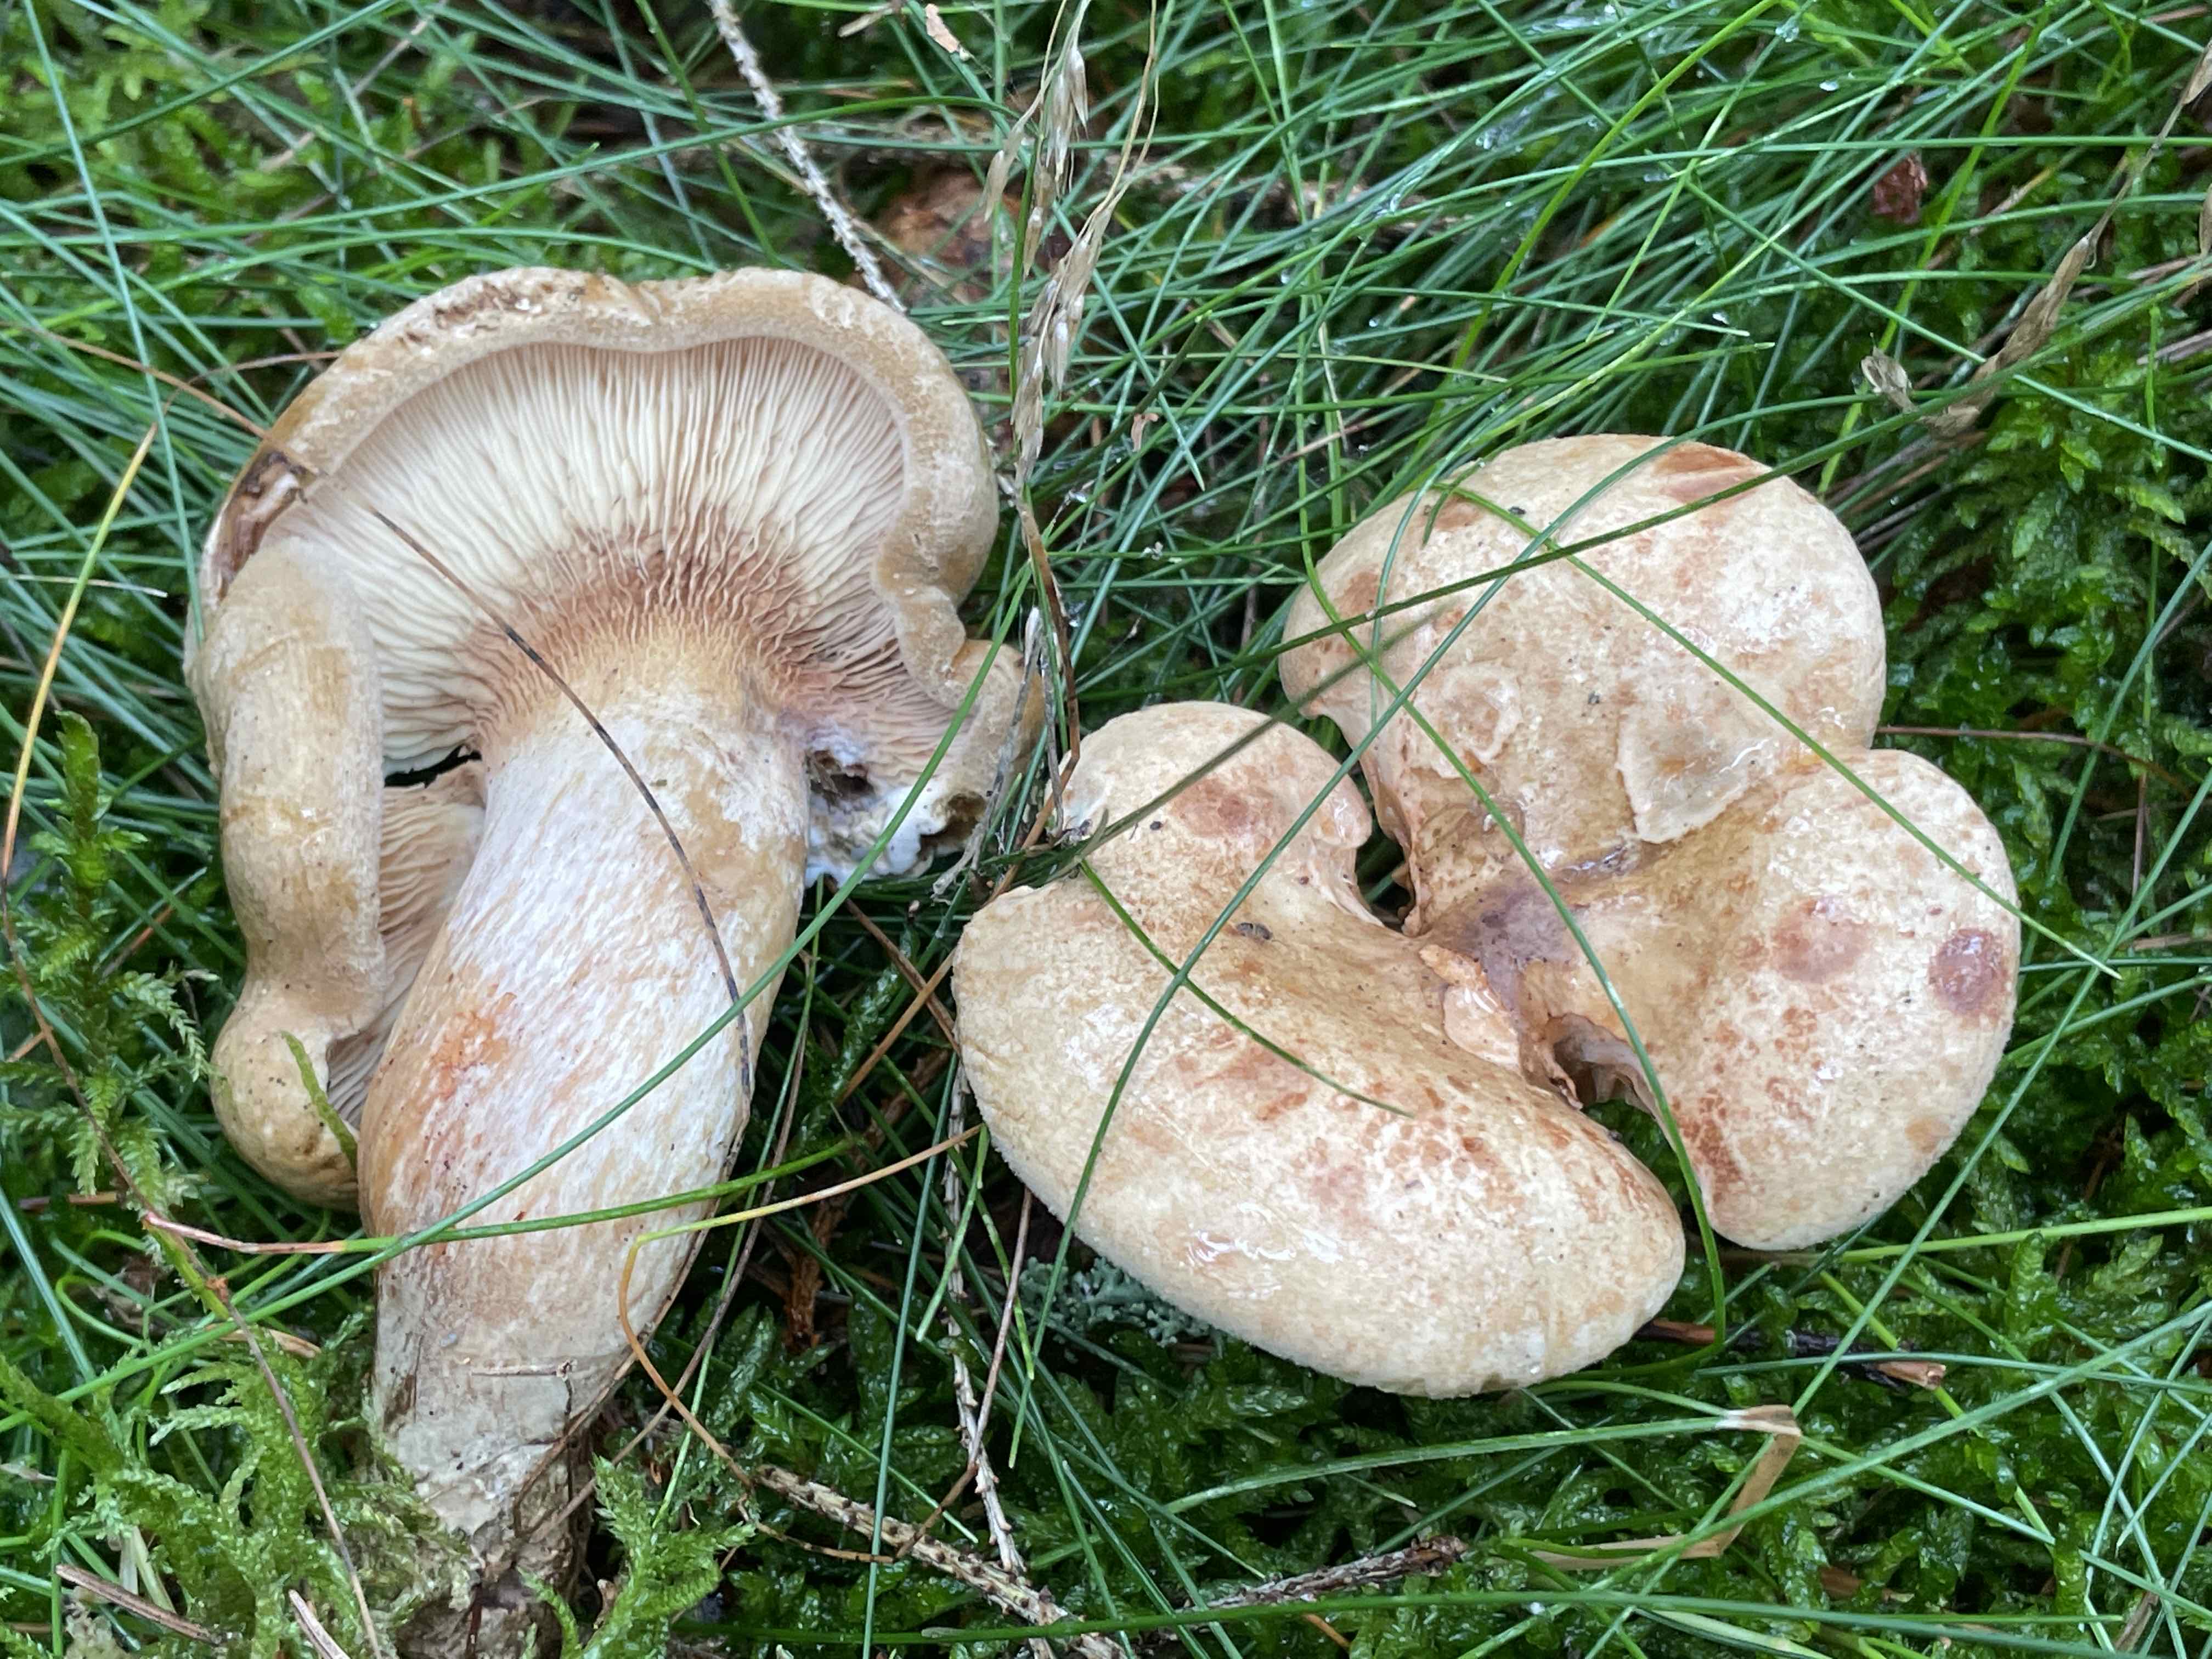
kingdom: Fungi
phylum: Basidiomycota
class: Agaricomycetes
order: Boletales
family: Paxillaceae
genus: Paxillus
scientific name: Paxillus involutus
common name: almindelig netbladhat
